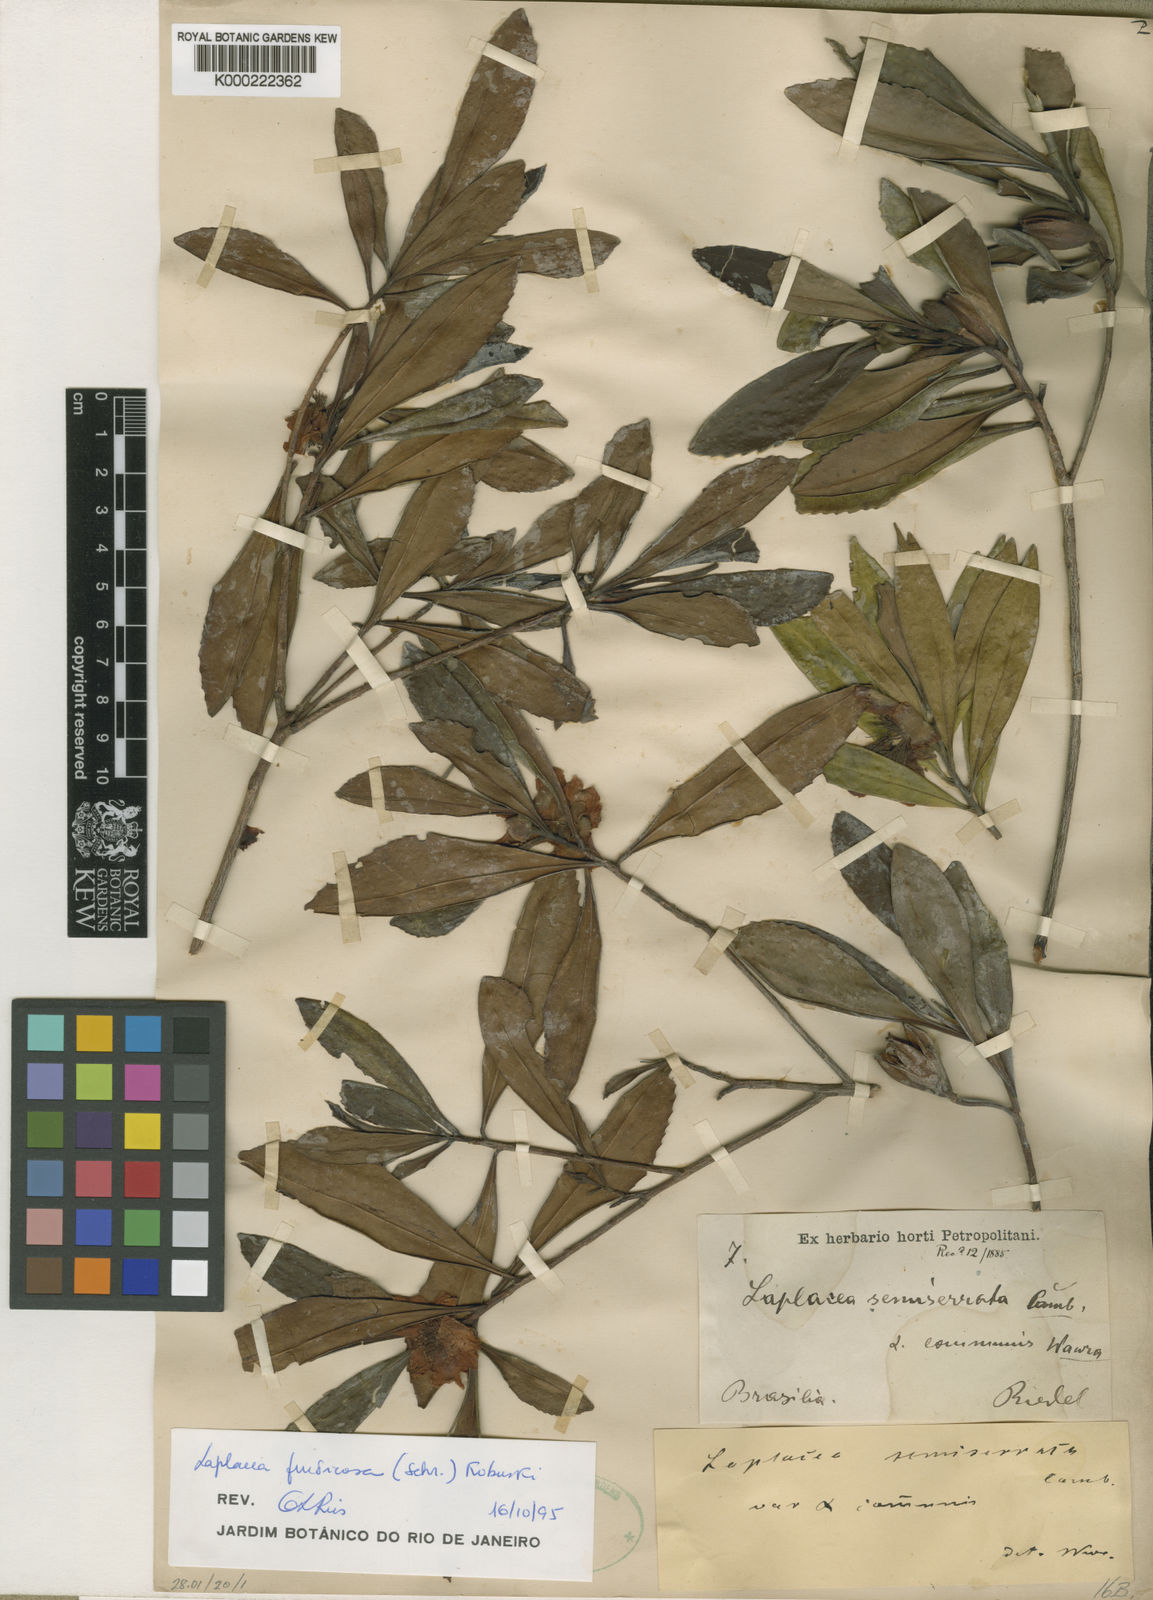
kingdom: Plantae
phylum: Tracheophyta
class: Magnoliopsida
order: Ericales
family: Theaceae
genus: Gordonia
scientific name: Gordonia fruticosa
